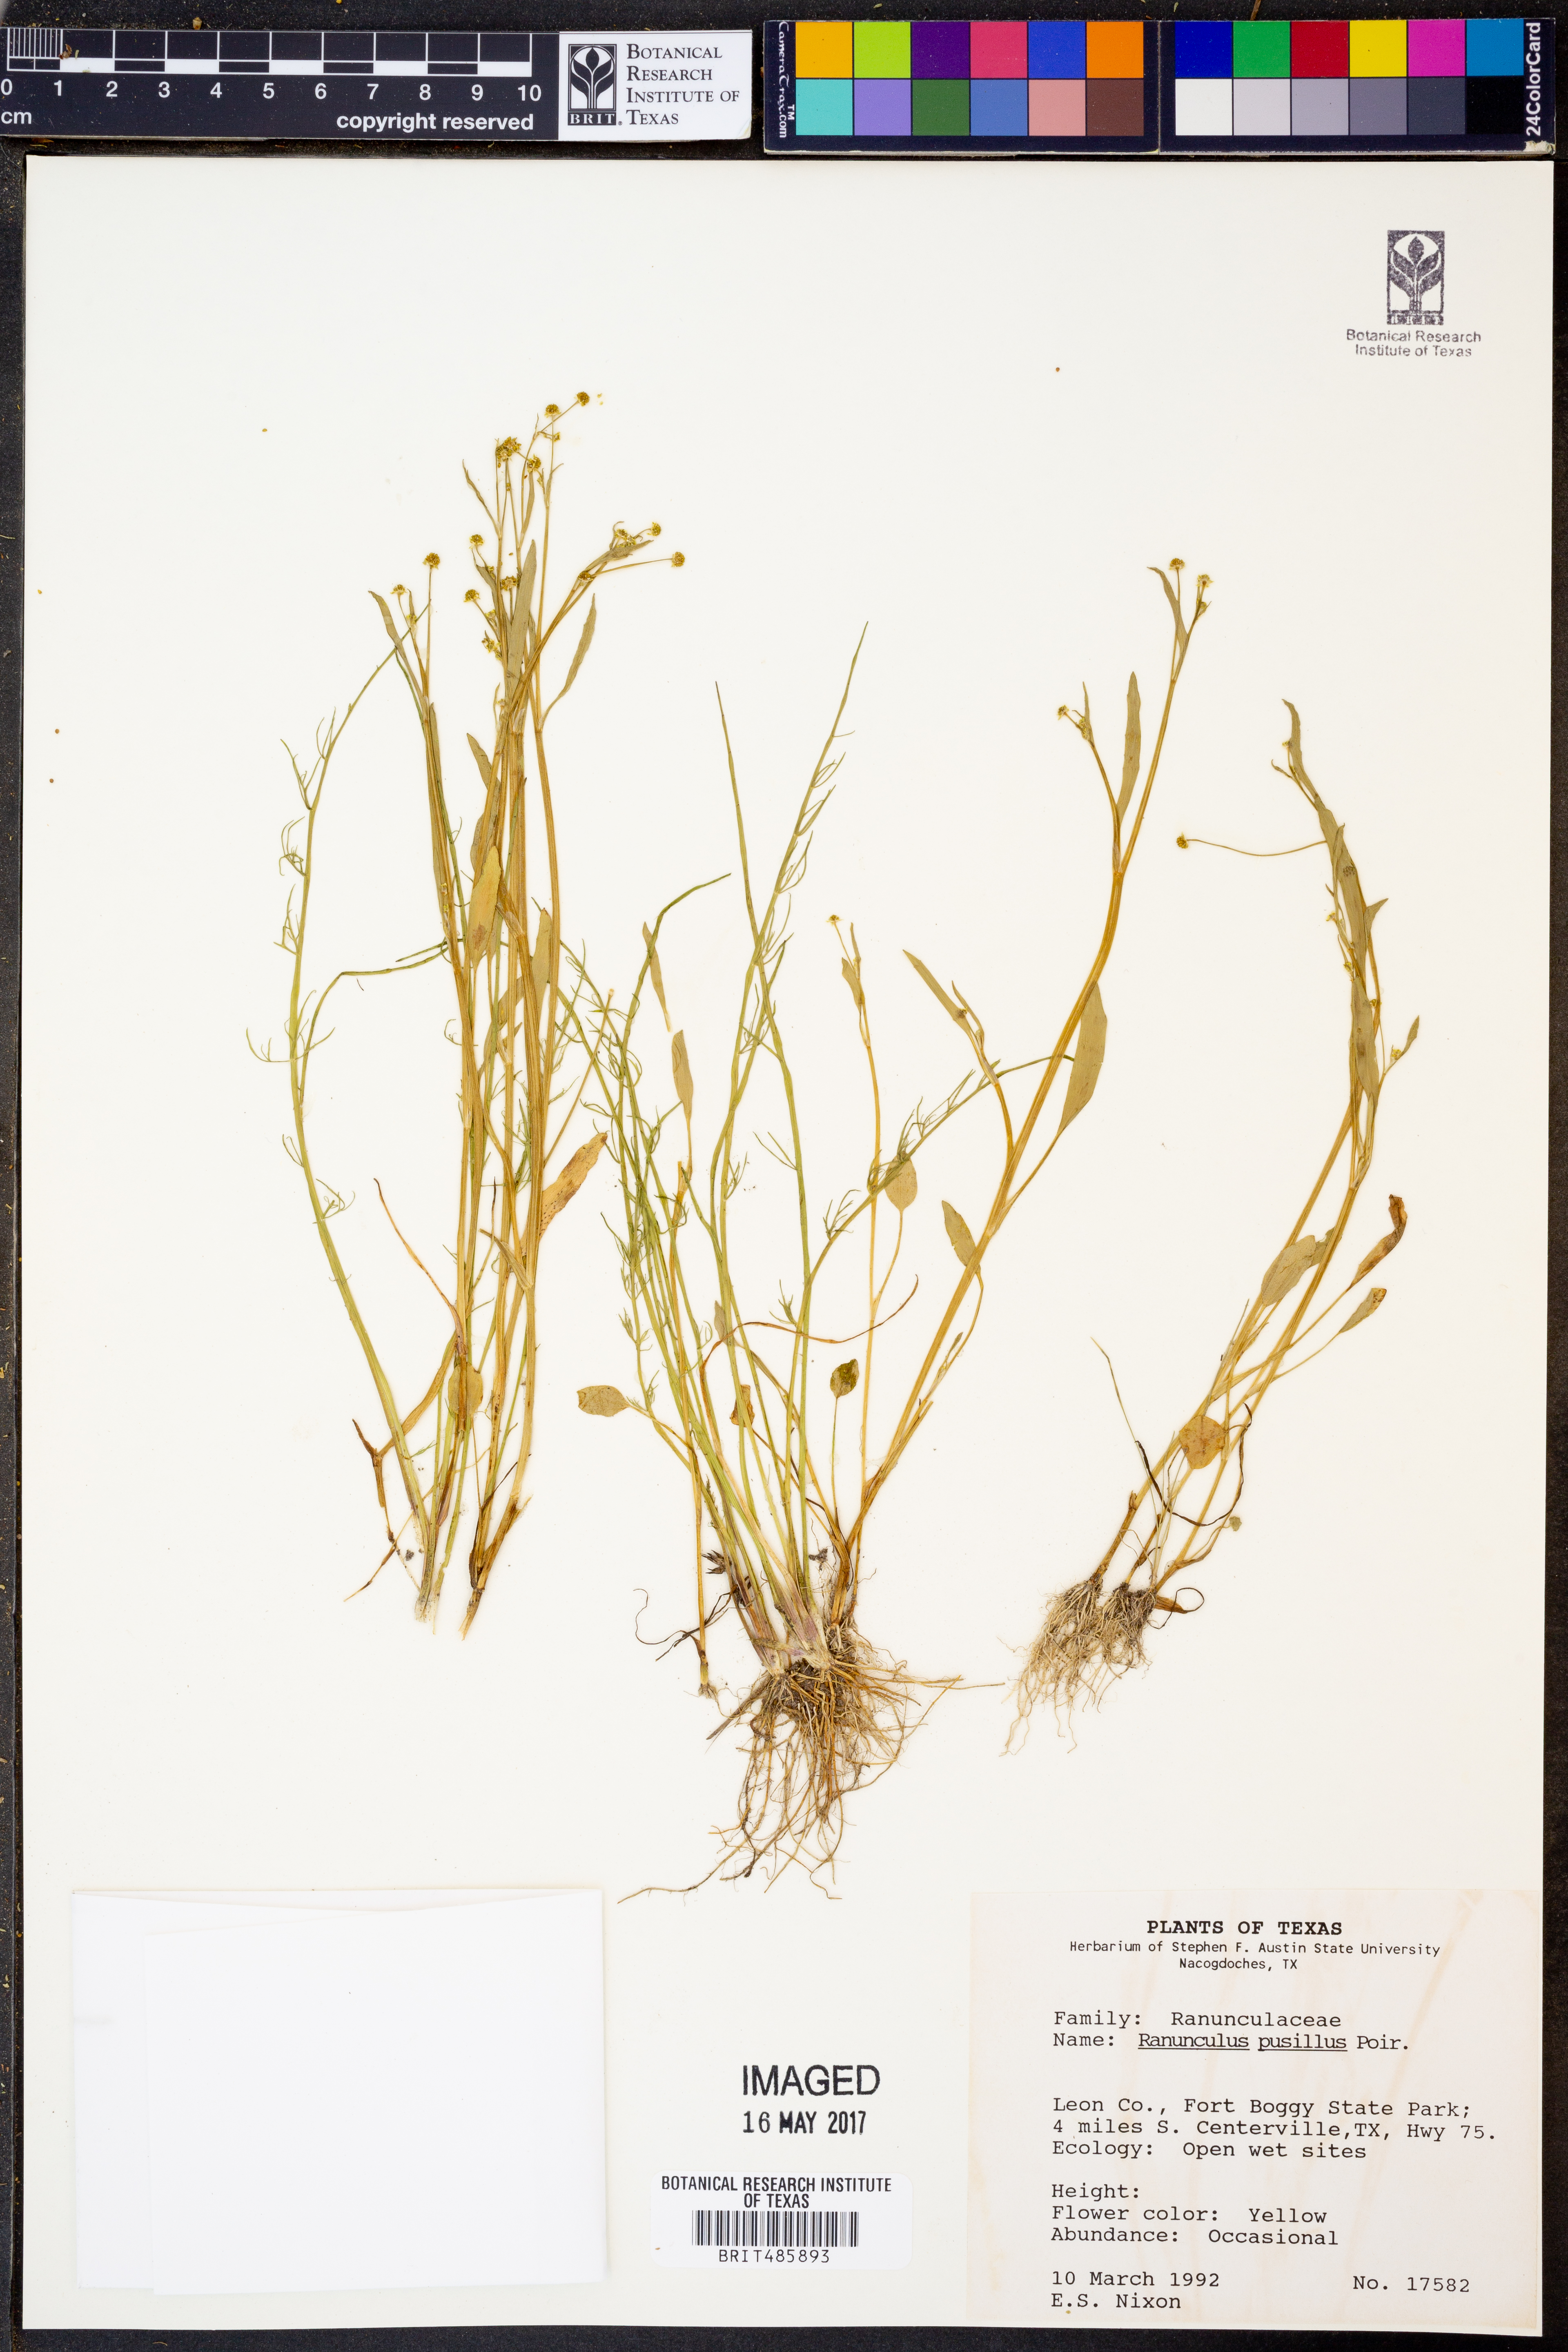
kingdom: Plantae
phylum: Tracheophyta
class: Magnoliopsida
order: Ranunculales
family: Ranunculaceae
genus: Ranunculus
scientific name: Ranunculus pusillus
